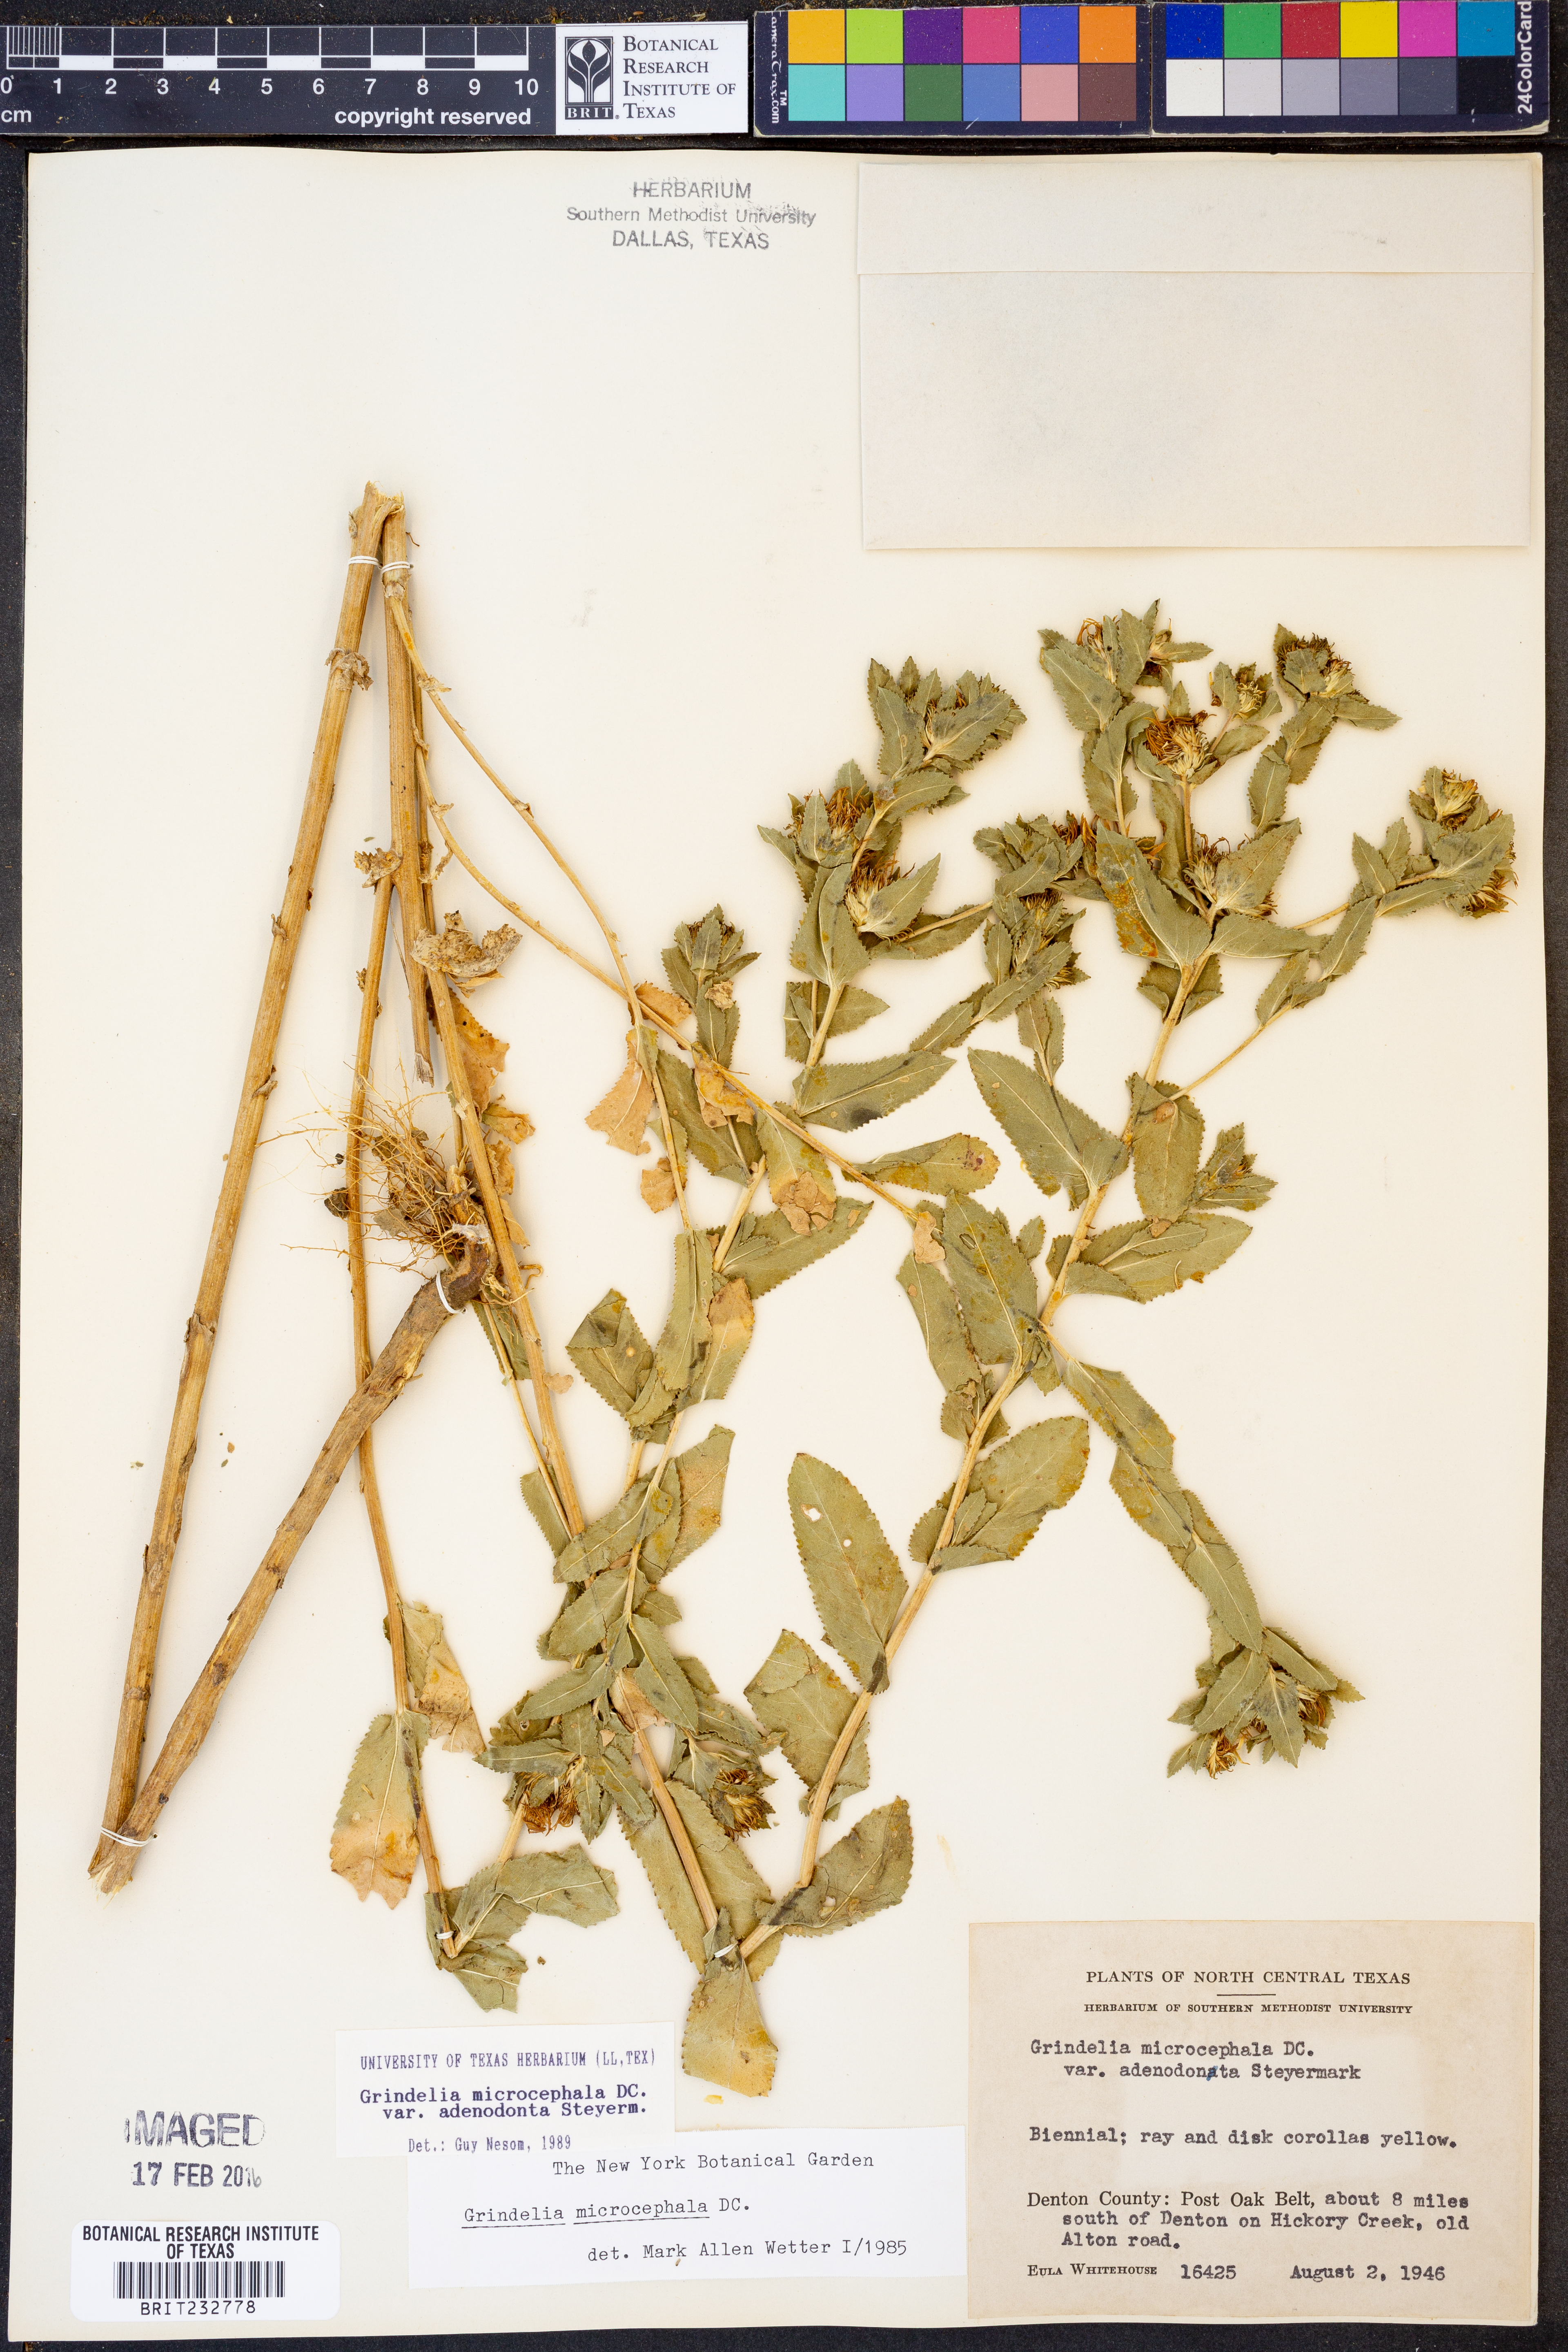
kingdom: Plantae
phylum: Tracheophyta
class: Magnoliopsida
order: Asterales
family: Asteraceae
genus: Grindelia
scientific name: Grindelia adenodonta
